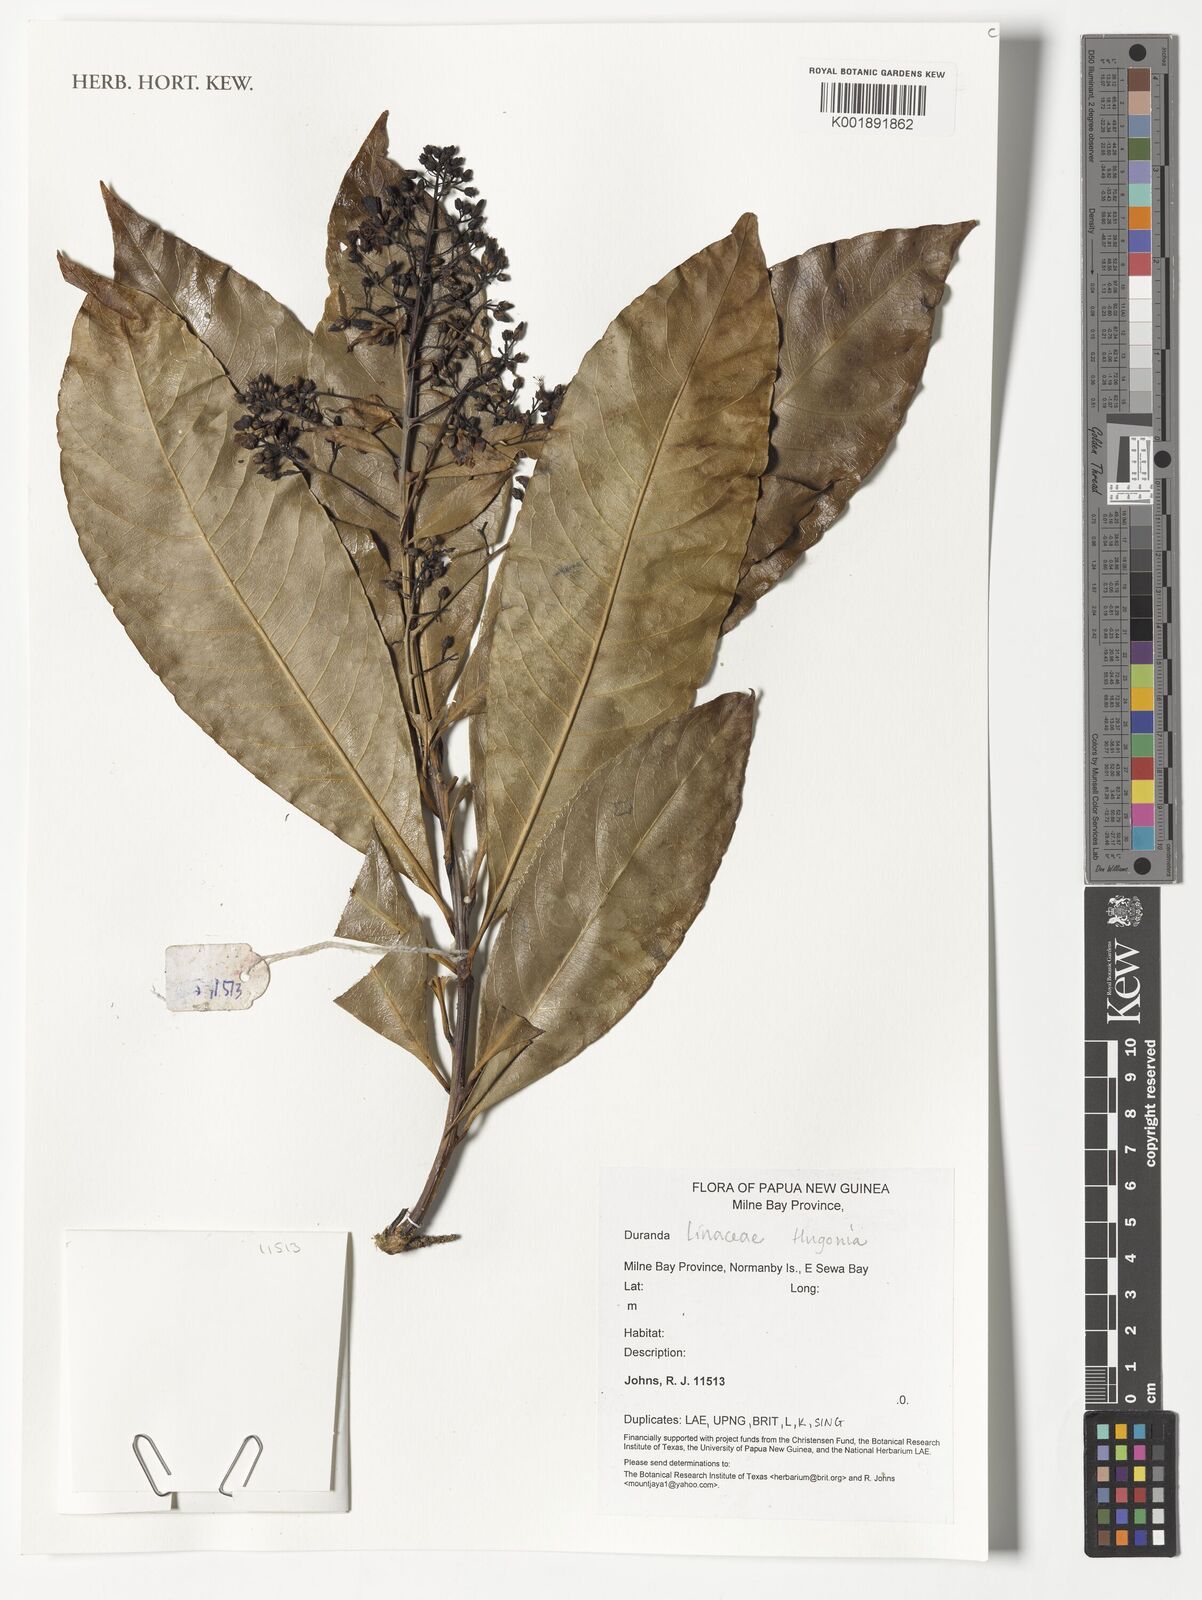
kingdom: Plantae
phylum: Tracheophyta
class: Magnoliopsida
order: Malpighiales
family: Linaceae
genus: Hugonia
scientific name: Hugonia
